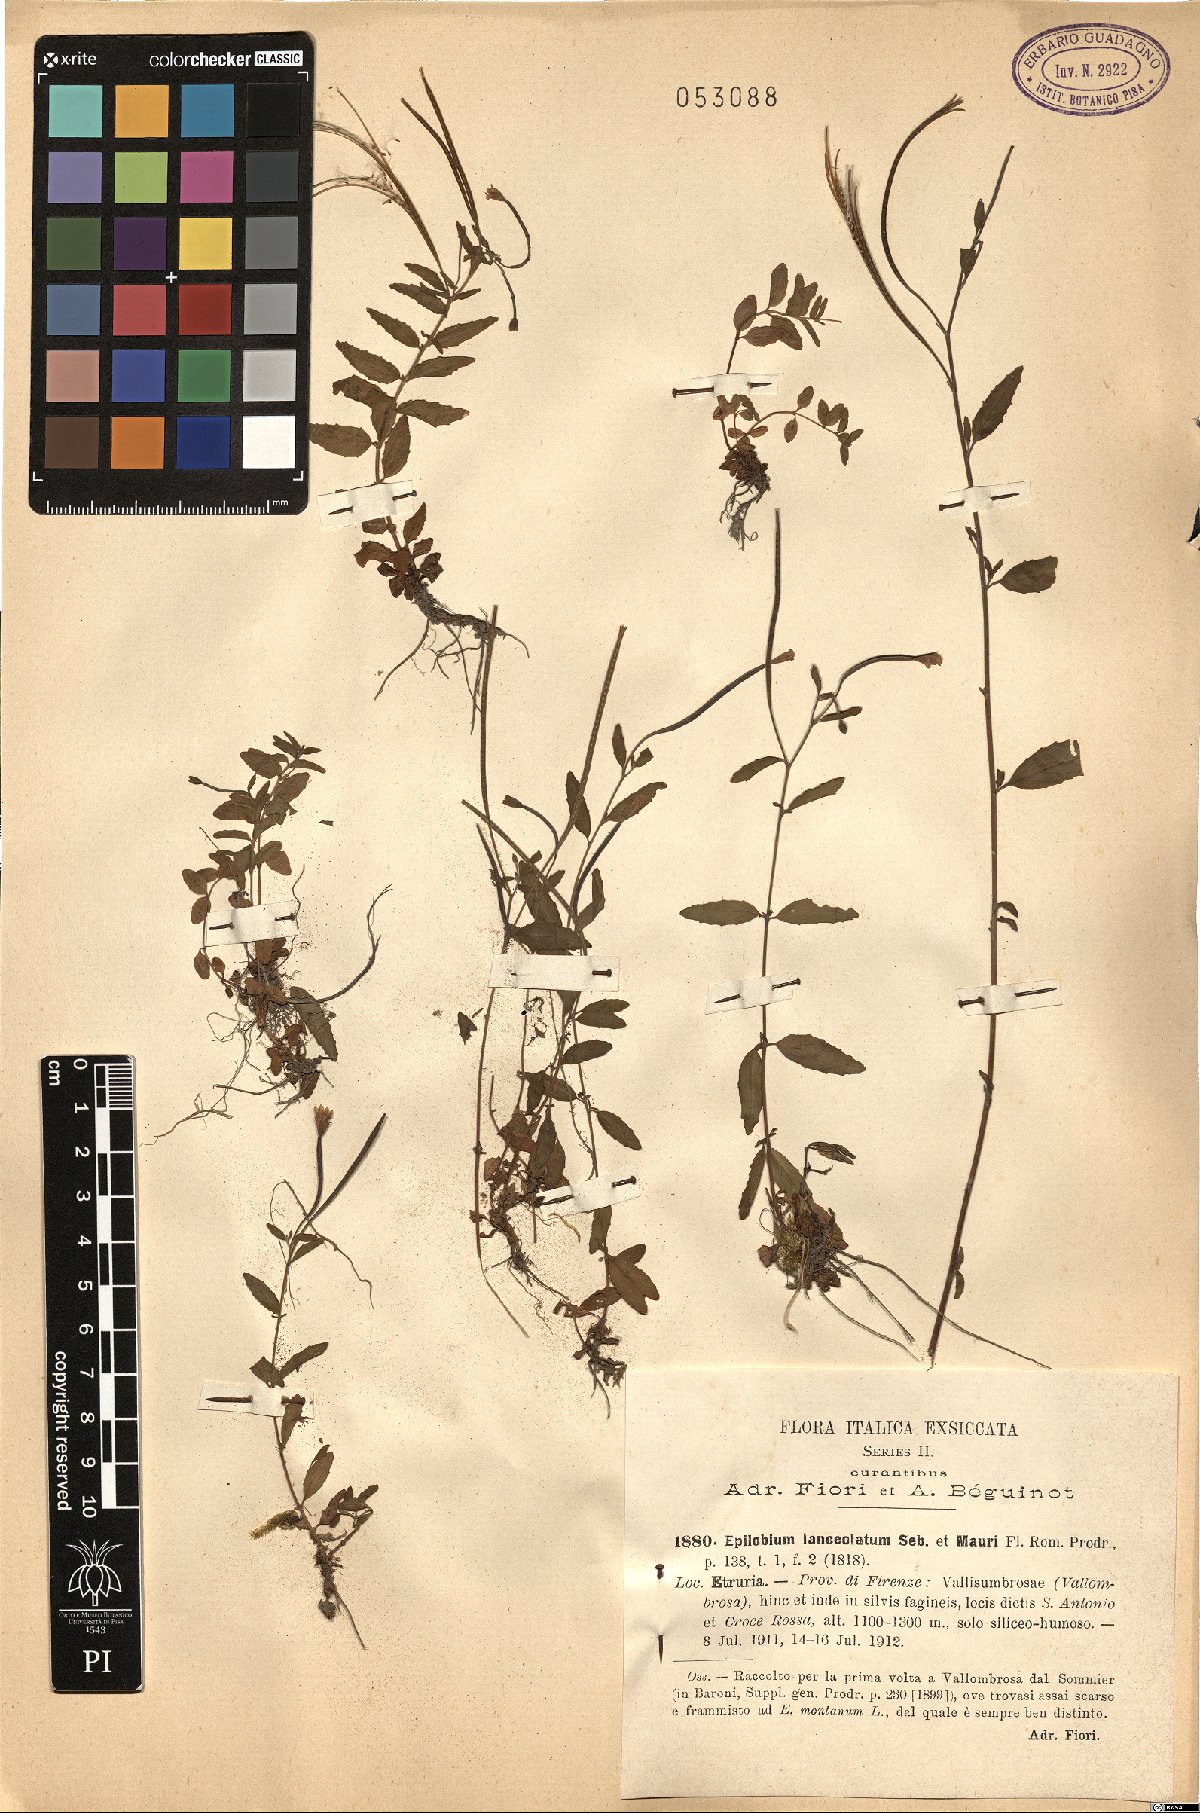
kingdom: Plantae
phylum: Tracheophyta
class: Magnoliopsida
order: Myrtales
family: Onagraceae
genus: Epilobium
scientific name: Epilobium lanceolatum
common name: Spear-leaved willowherb
